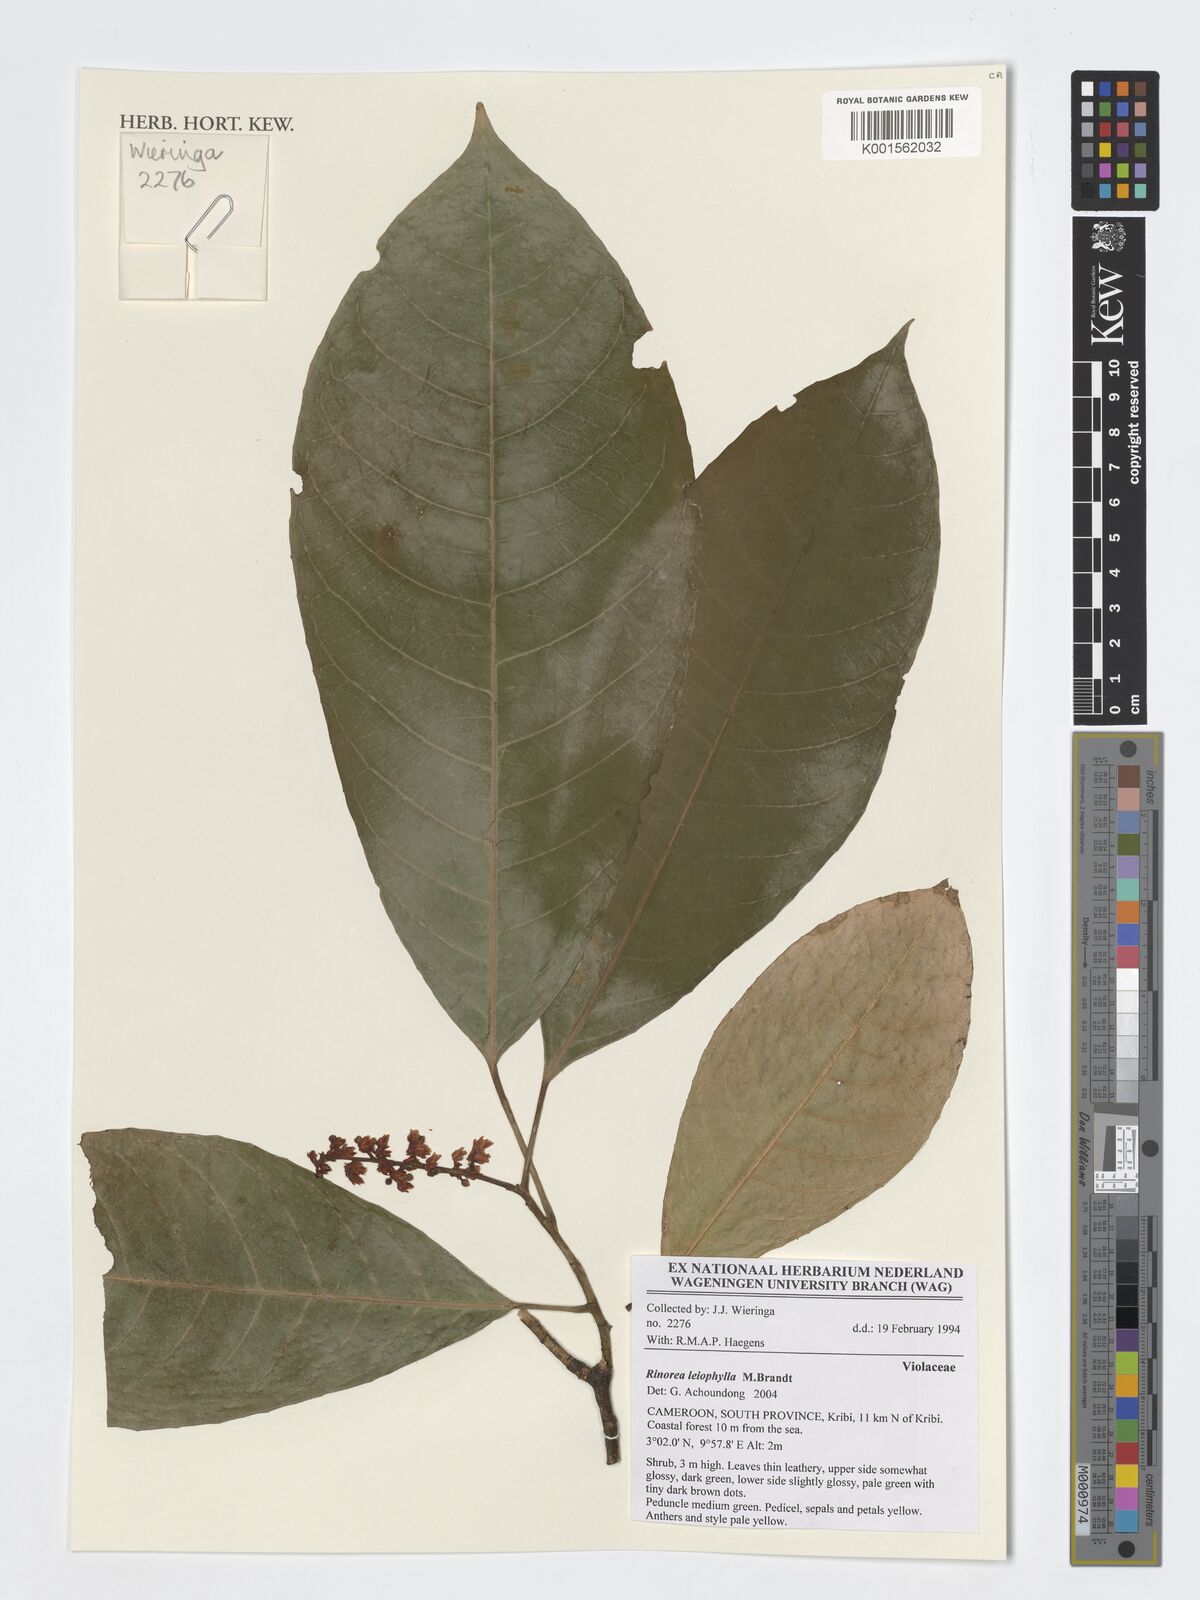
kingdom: Plantae
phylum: Tracheophyta
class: Magnoliopsida
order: Malpighiales
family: Violaceae
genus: Rinorea
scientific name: Rinorea leiophylla
